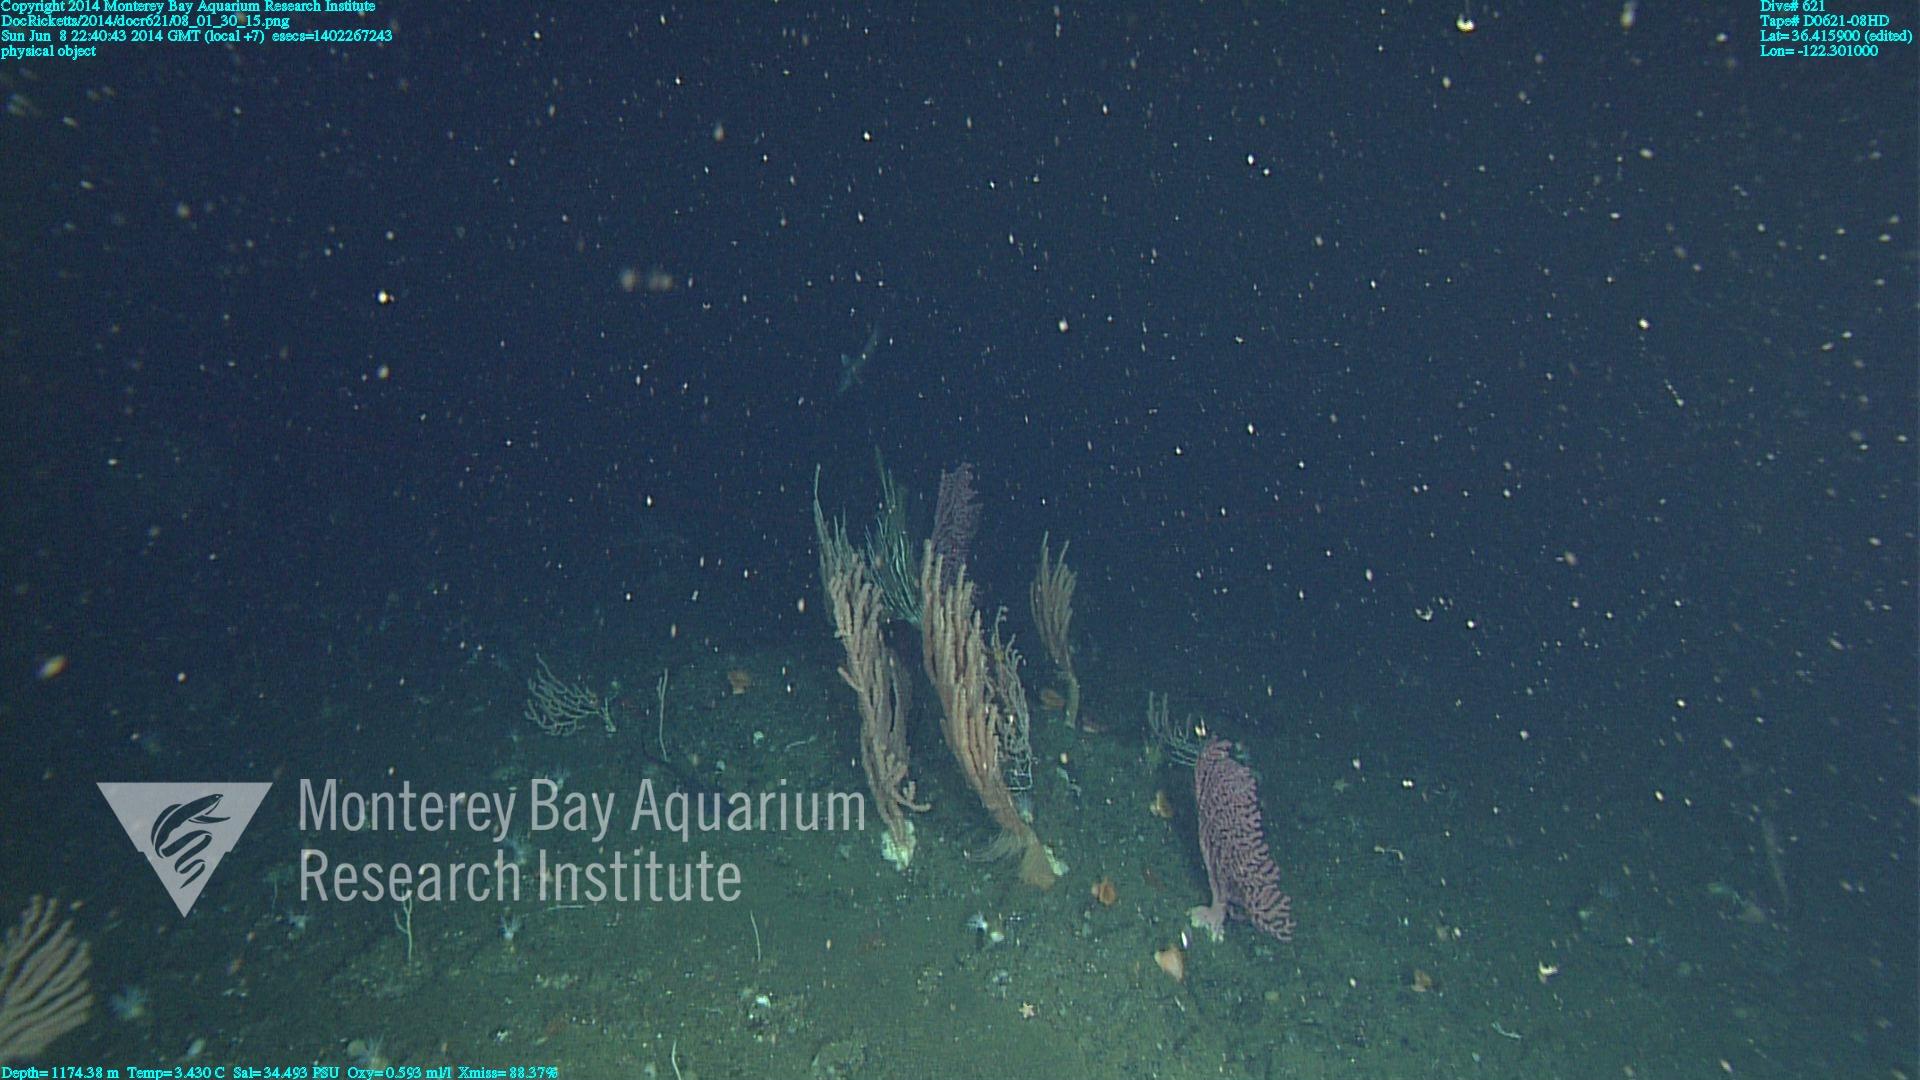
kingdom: Animalia
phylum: Cnidaria
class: Anthozoa
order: Scleralcyonacea
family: Keratoisididae
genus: Keratoisis
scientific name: Keratoisis
